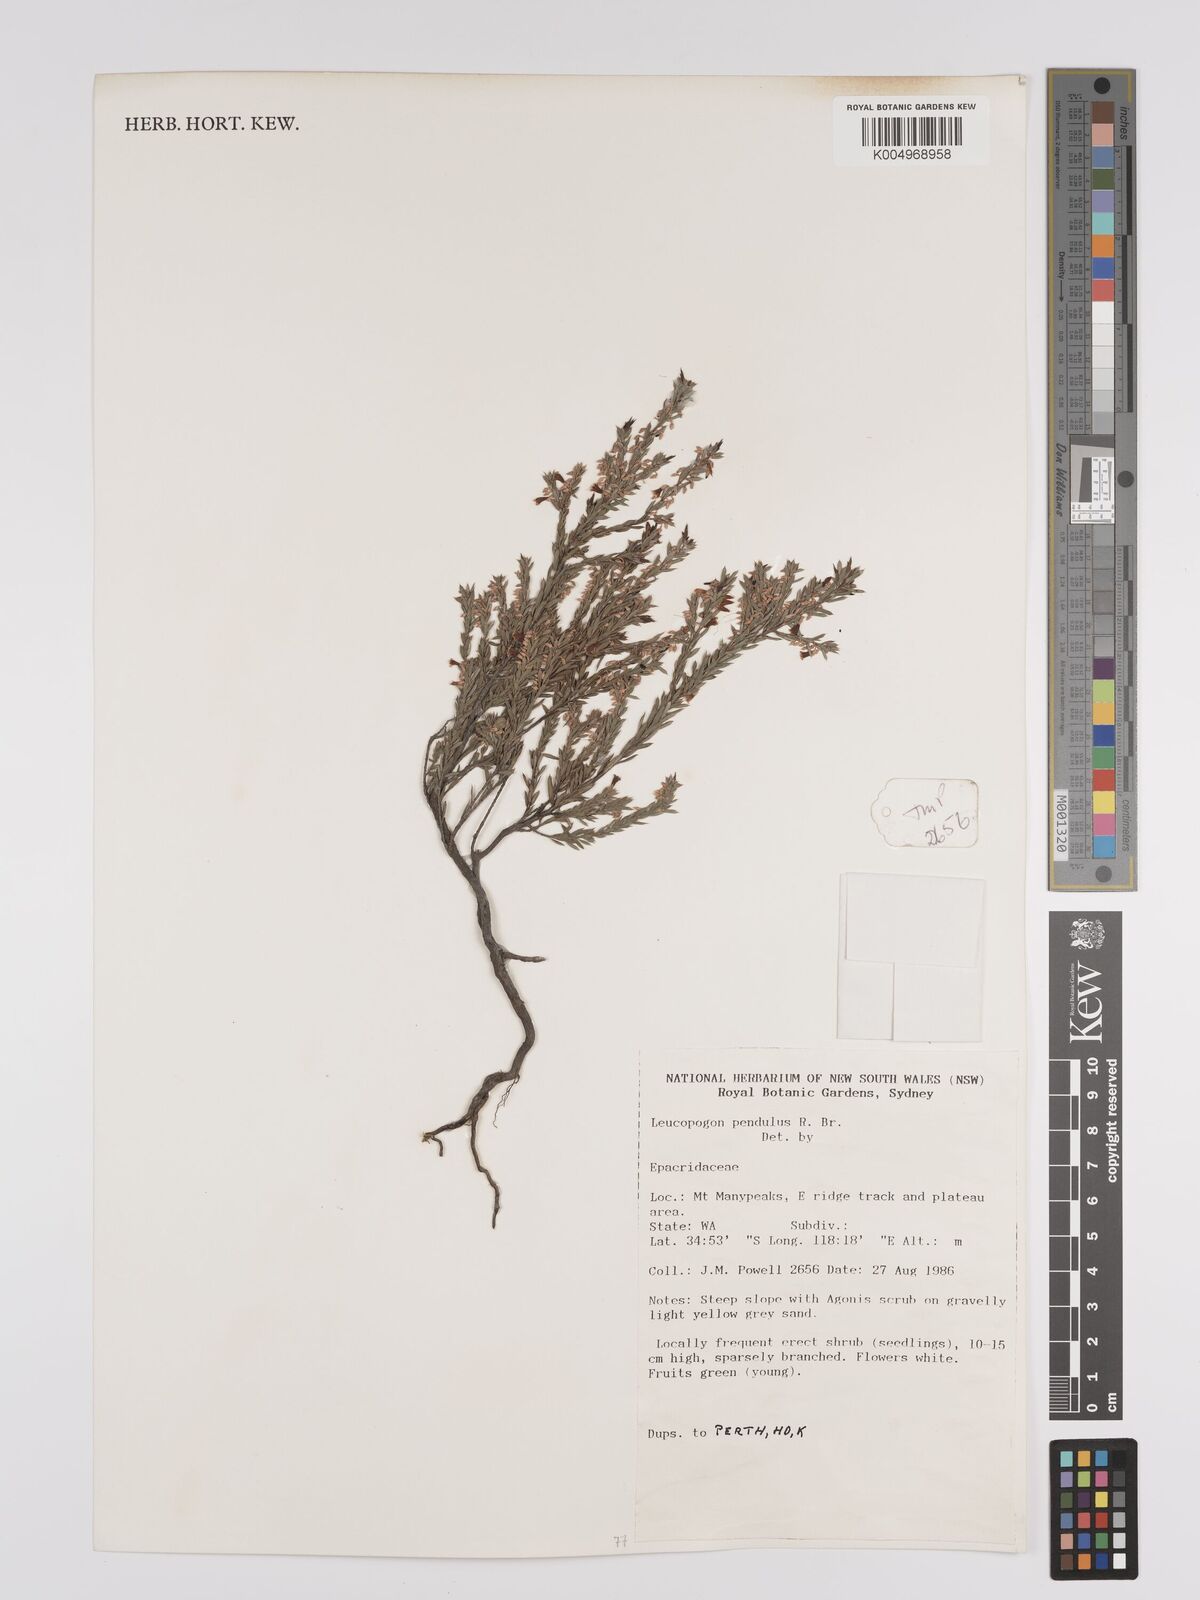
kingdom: Plantae
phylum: Tracheophyta
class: Magnoliopsida
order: Ericales
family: Ericaceae
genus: Styphelia
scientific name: Styphelia pendula
